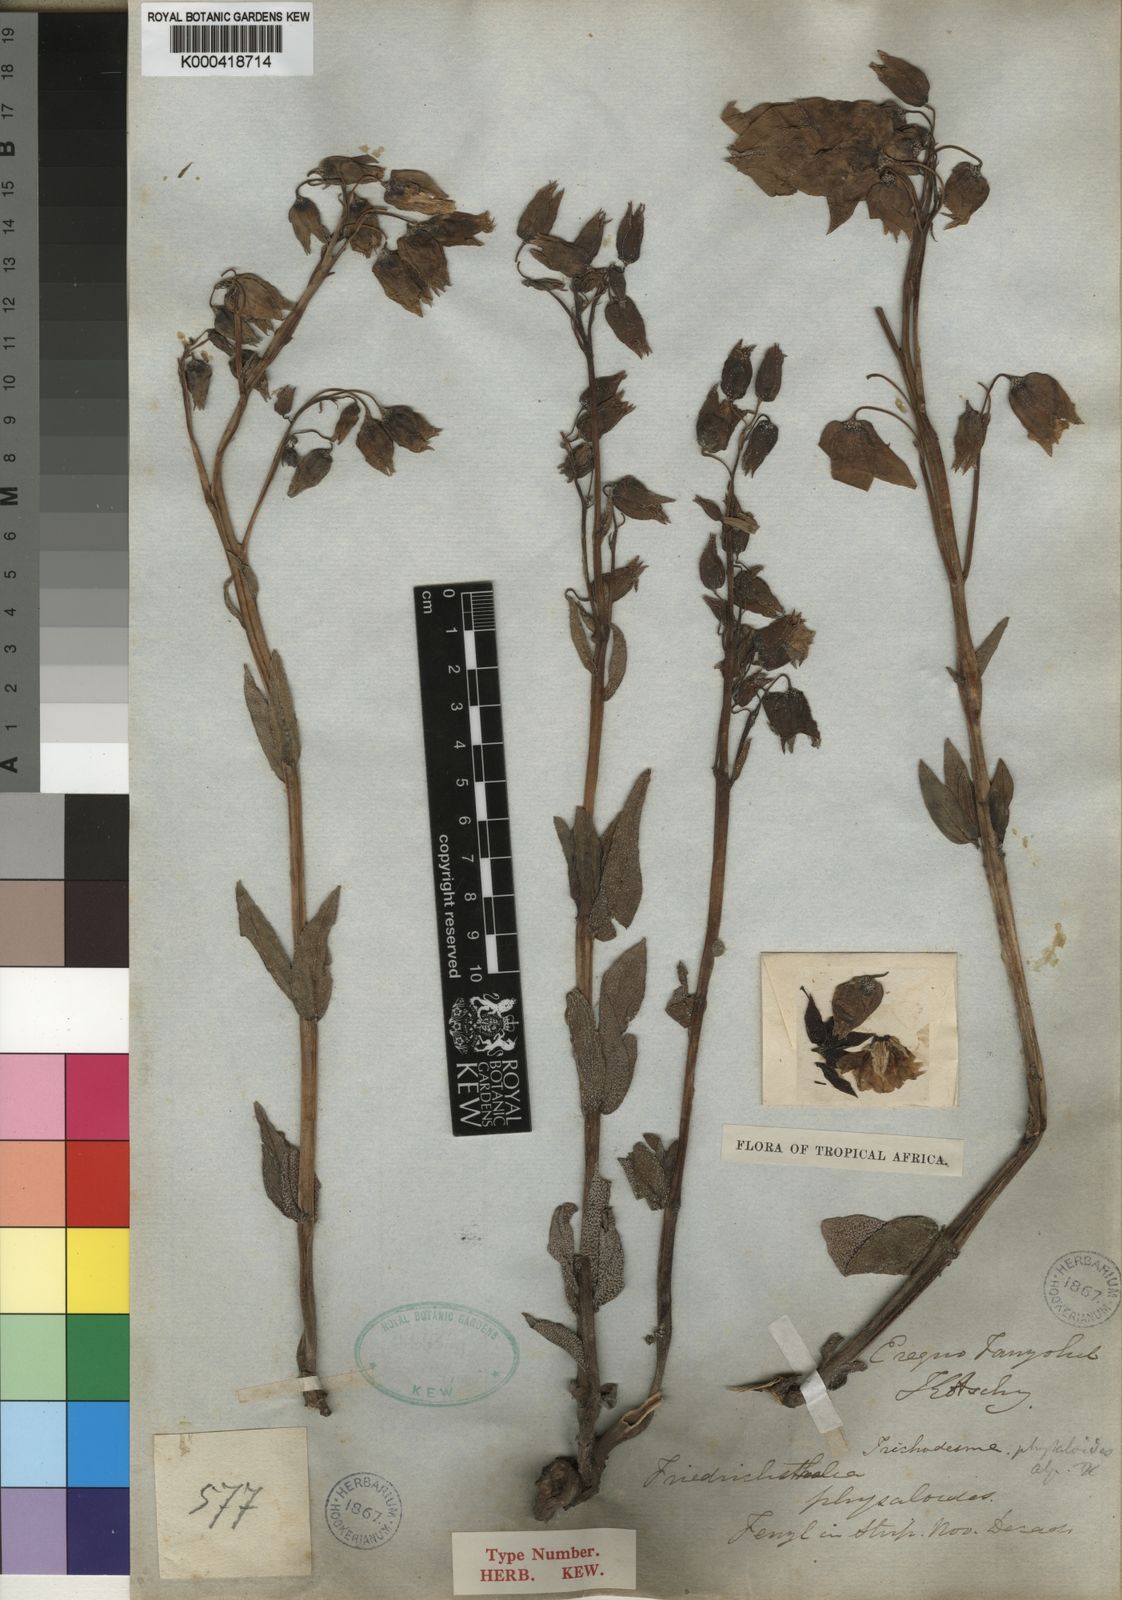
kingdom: Plantae
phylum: Tracheophyta
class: Magnoliopsida
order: Boraginales
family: Boraginaceae
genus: Trichodesma
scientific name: Trichodesma physaloides
